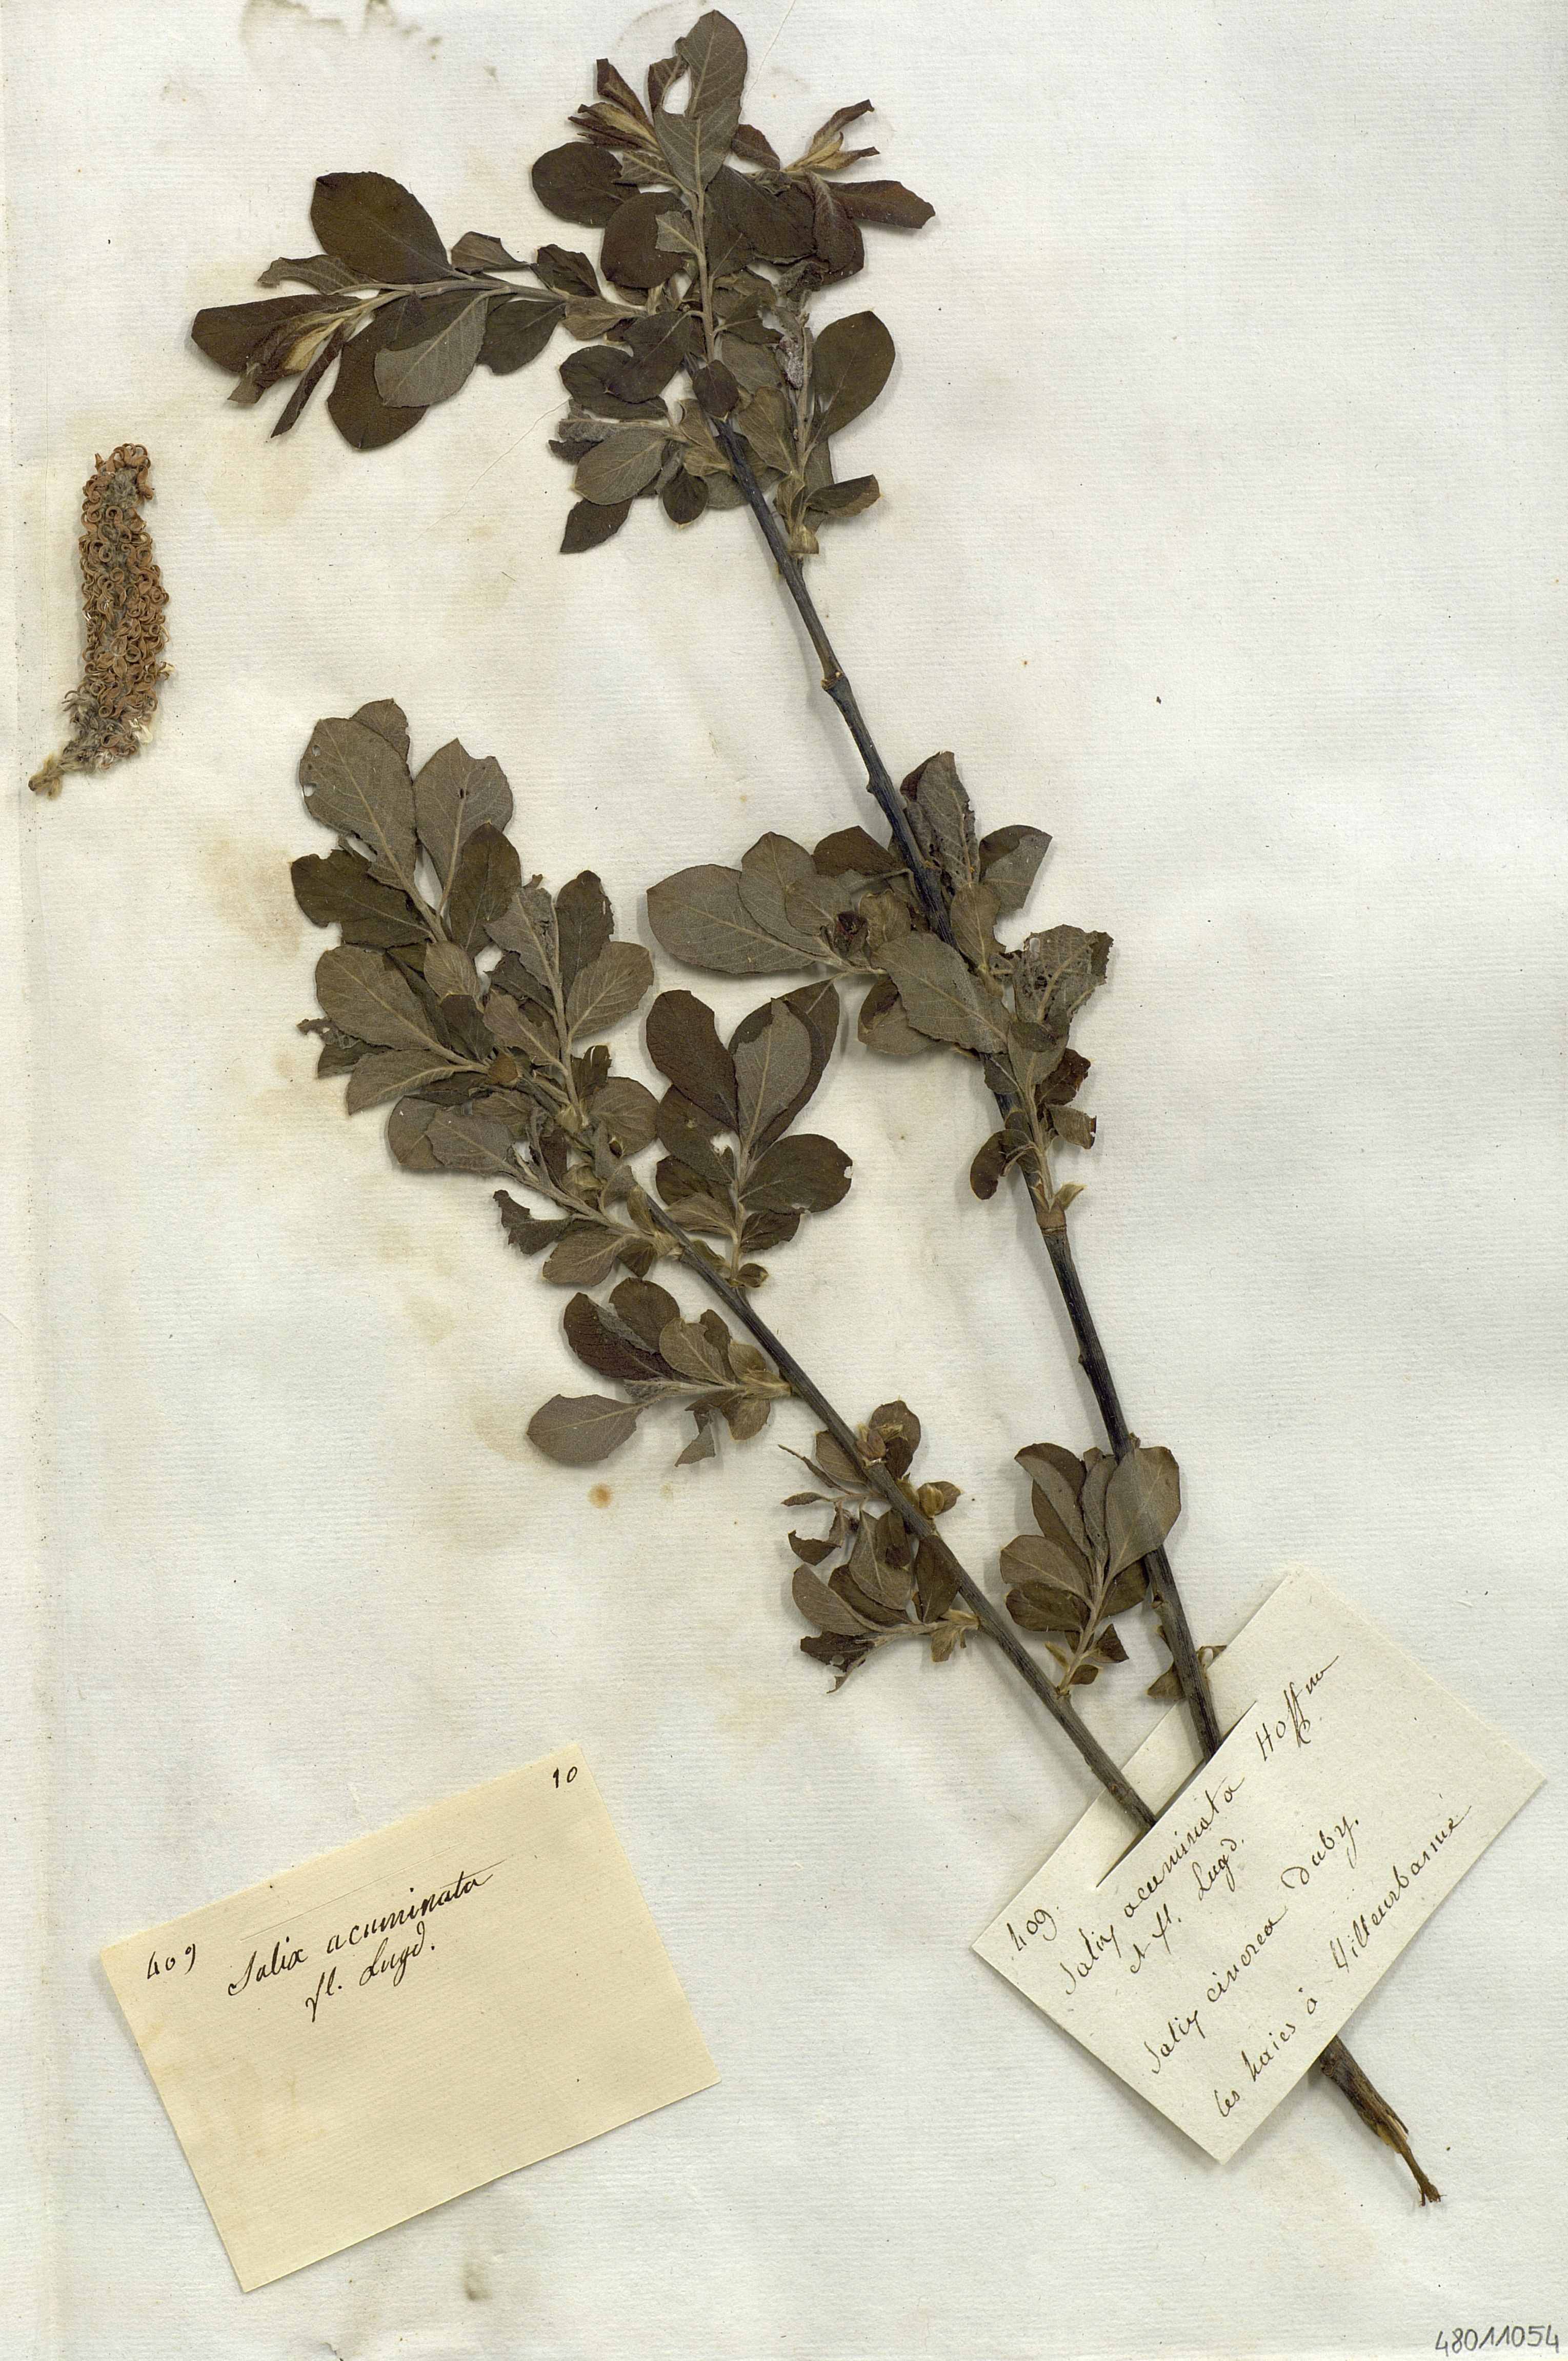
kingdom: Plantae
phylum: Tracheophyta
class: Magnoliopsida
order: Malpighiales
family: Salicaceae
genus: Salix
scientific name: Salix
